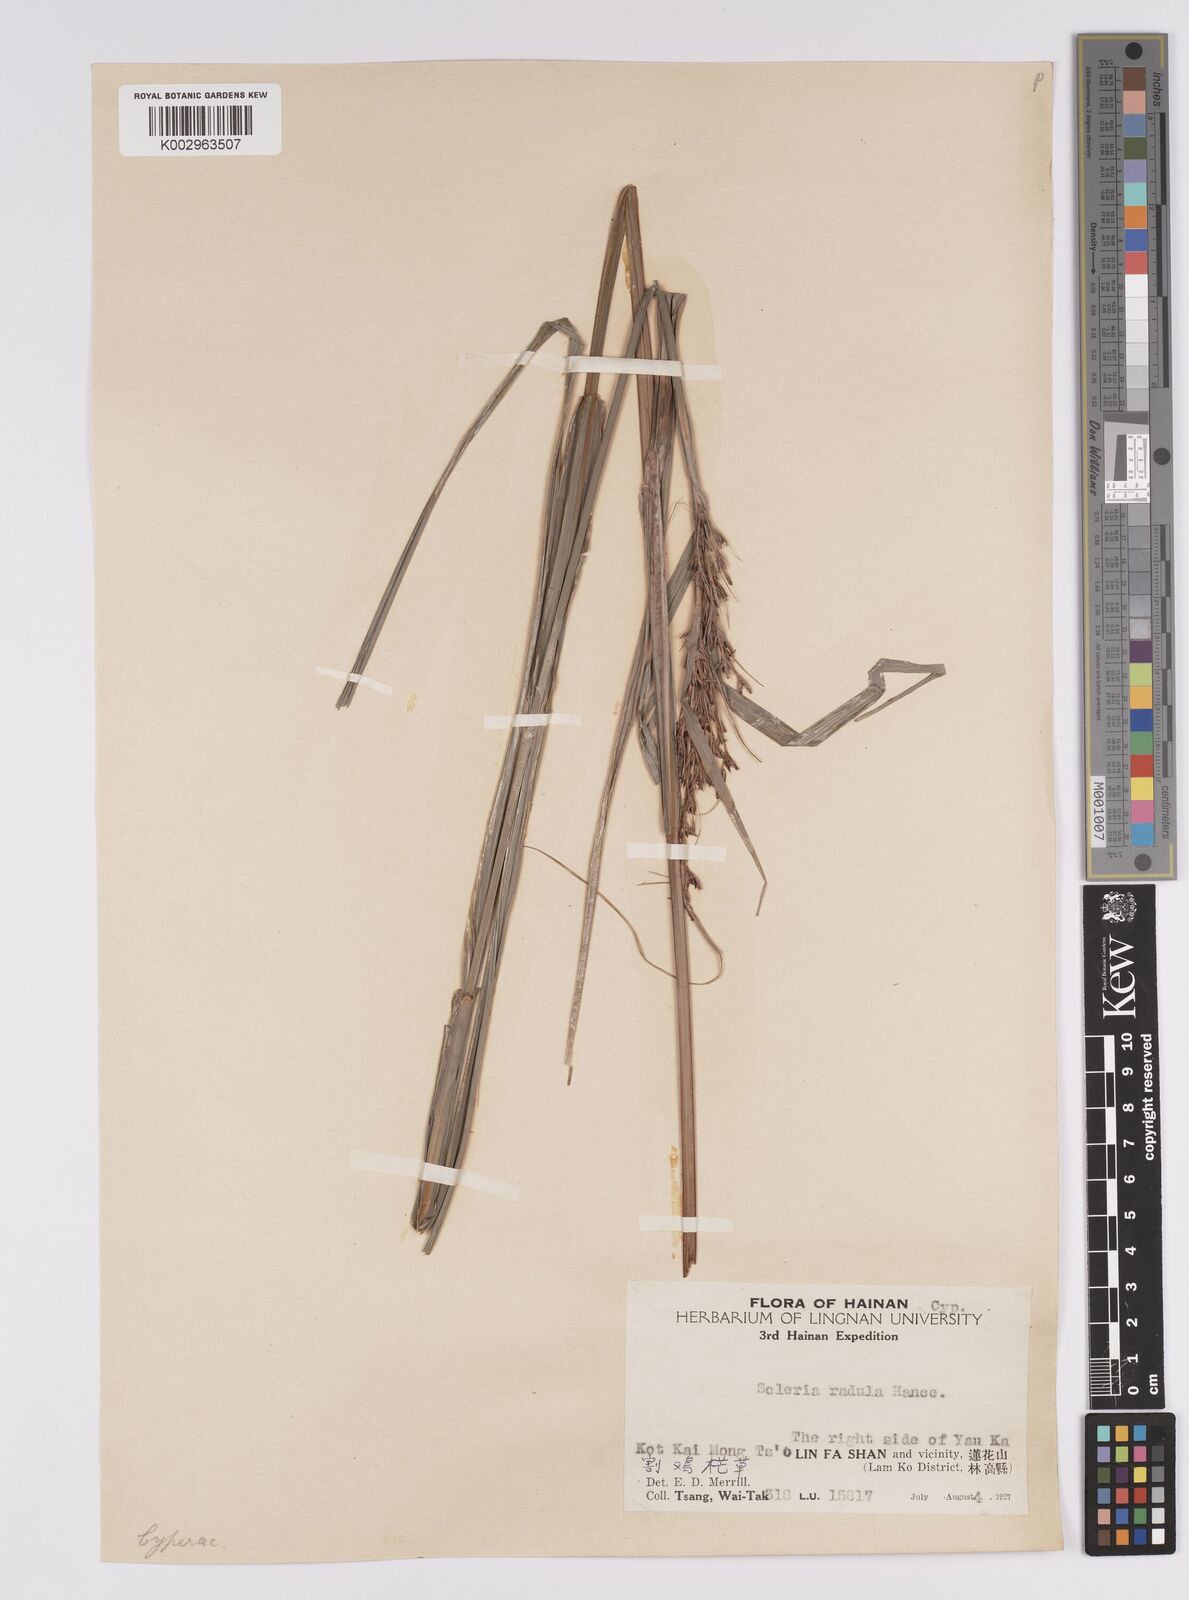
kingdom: Plantae
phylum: Tracheophyta
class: Liliopsida
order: Poales
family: Cyperaceae
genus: Scleria
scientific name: Scleria radula
